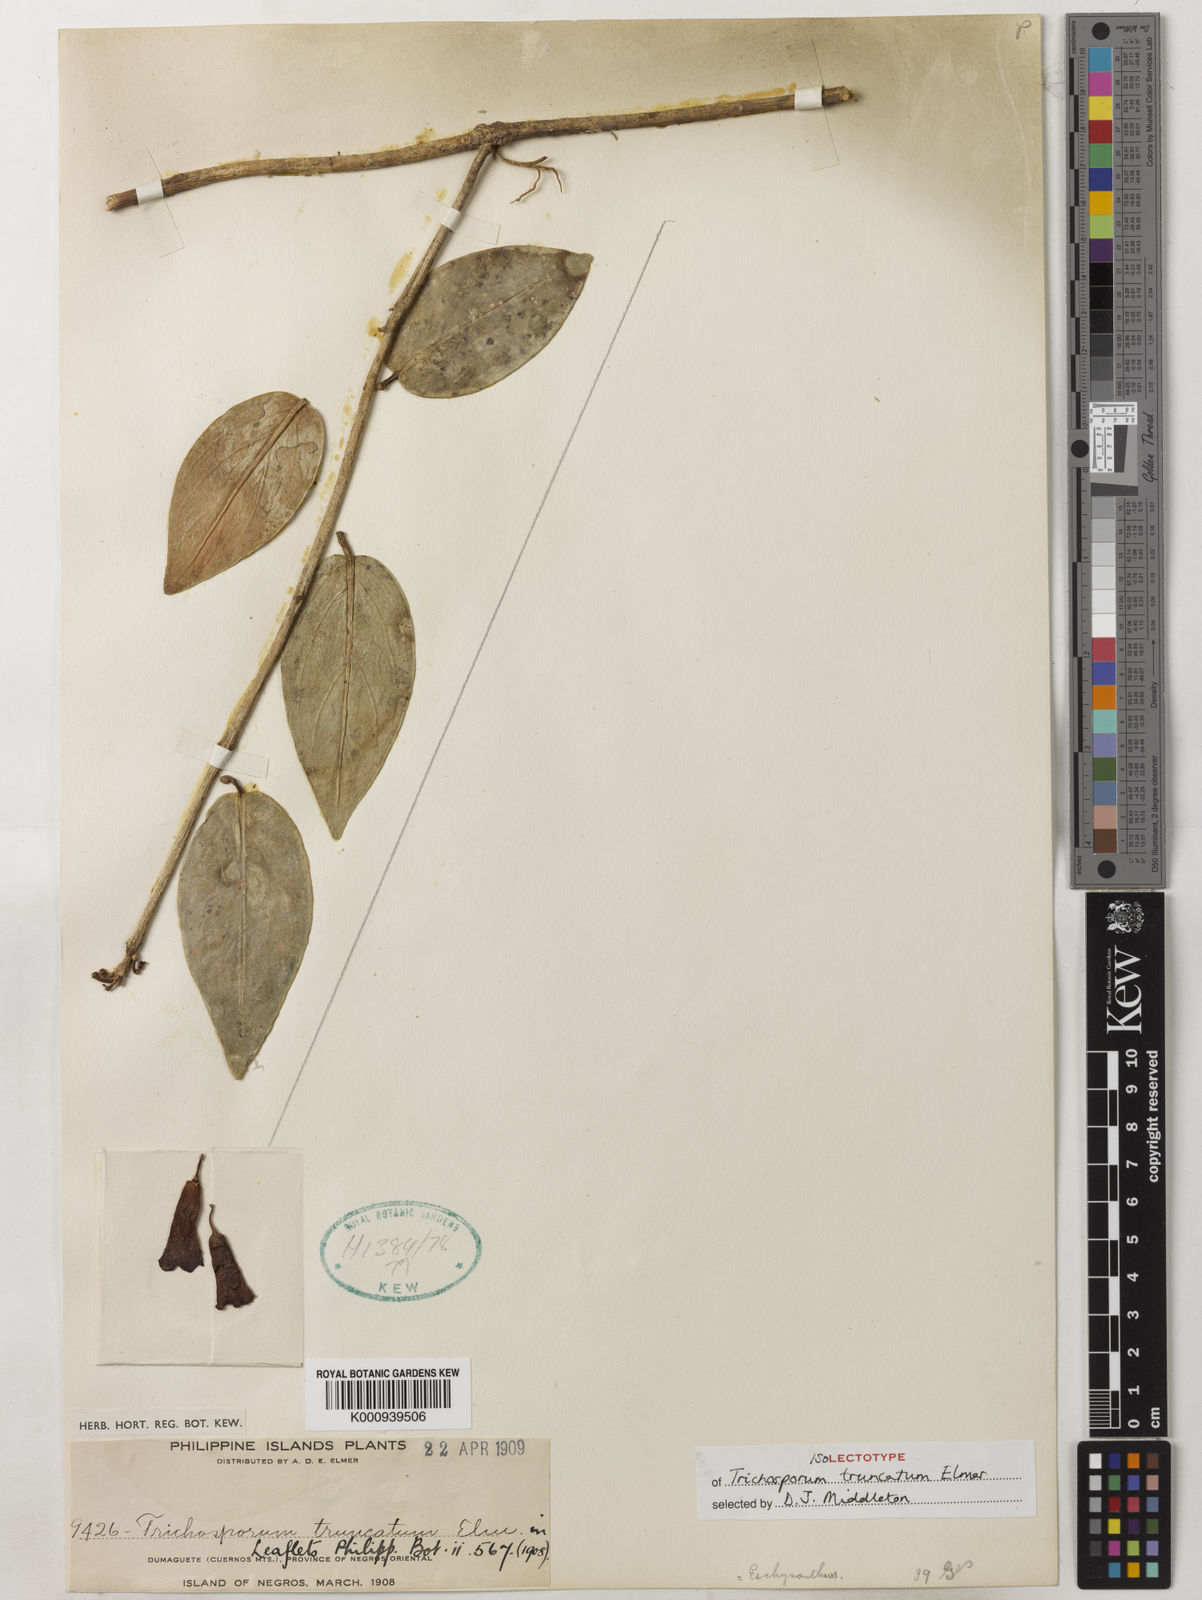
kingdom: Plantae
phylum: Tracheophyta
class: Magnoliopsida
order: Lamiales
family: Gesneriaceae
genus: Aeschynanthus
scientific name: Aeschynanthus truncatus
